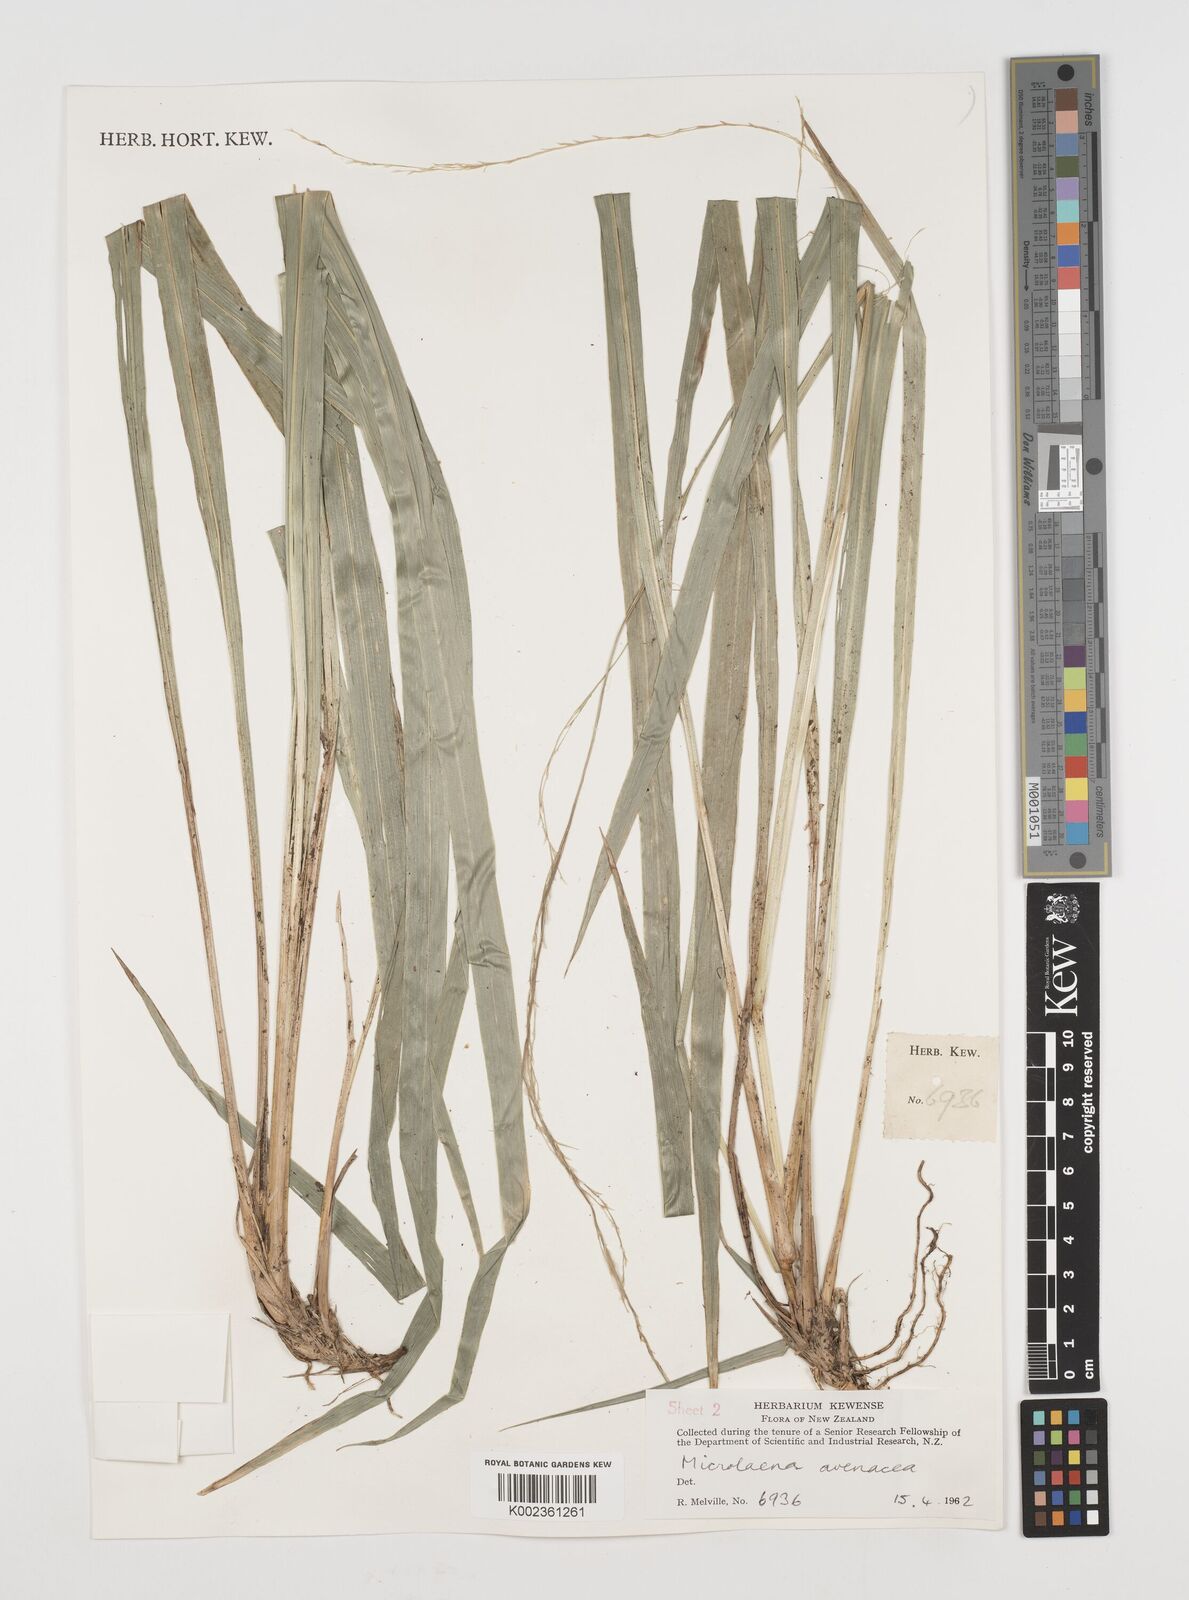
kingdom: Plantae
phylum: Tracheophyta
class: Liliopsida
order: Poales
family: Poaceae
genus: Ehrharta
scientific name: Ehrharta diplax
